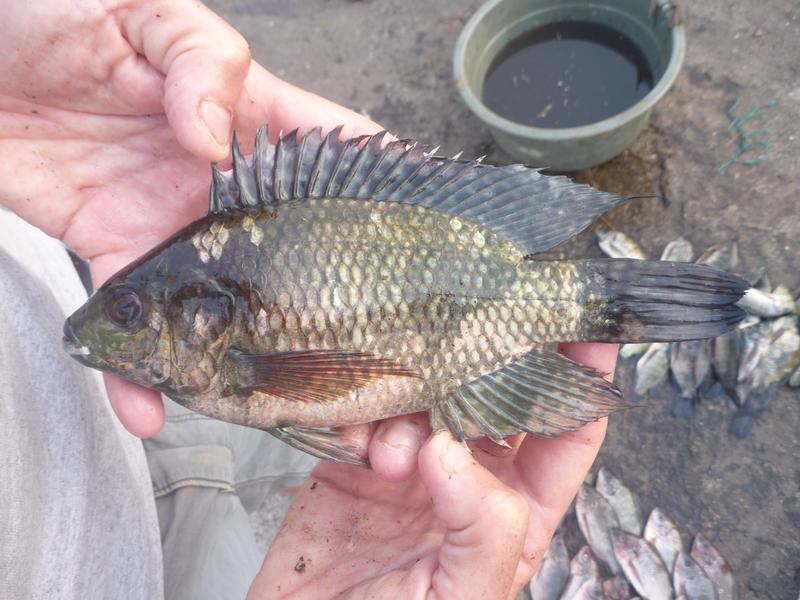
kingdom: Animalia
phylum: Chordata
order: Perciformes
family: Cichlidae
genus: Oreochromis
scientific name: Oreochromis leucostictus
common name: Blue spotted tilapia
